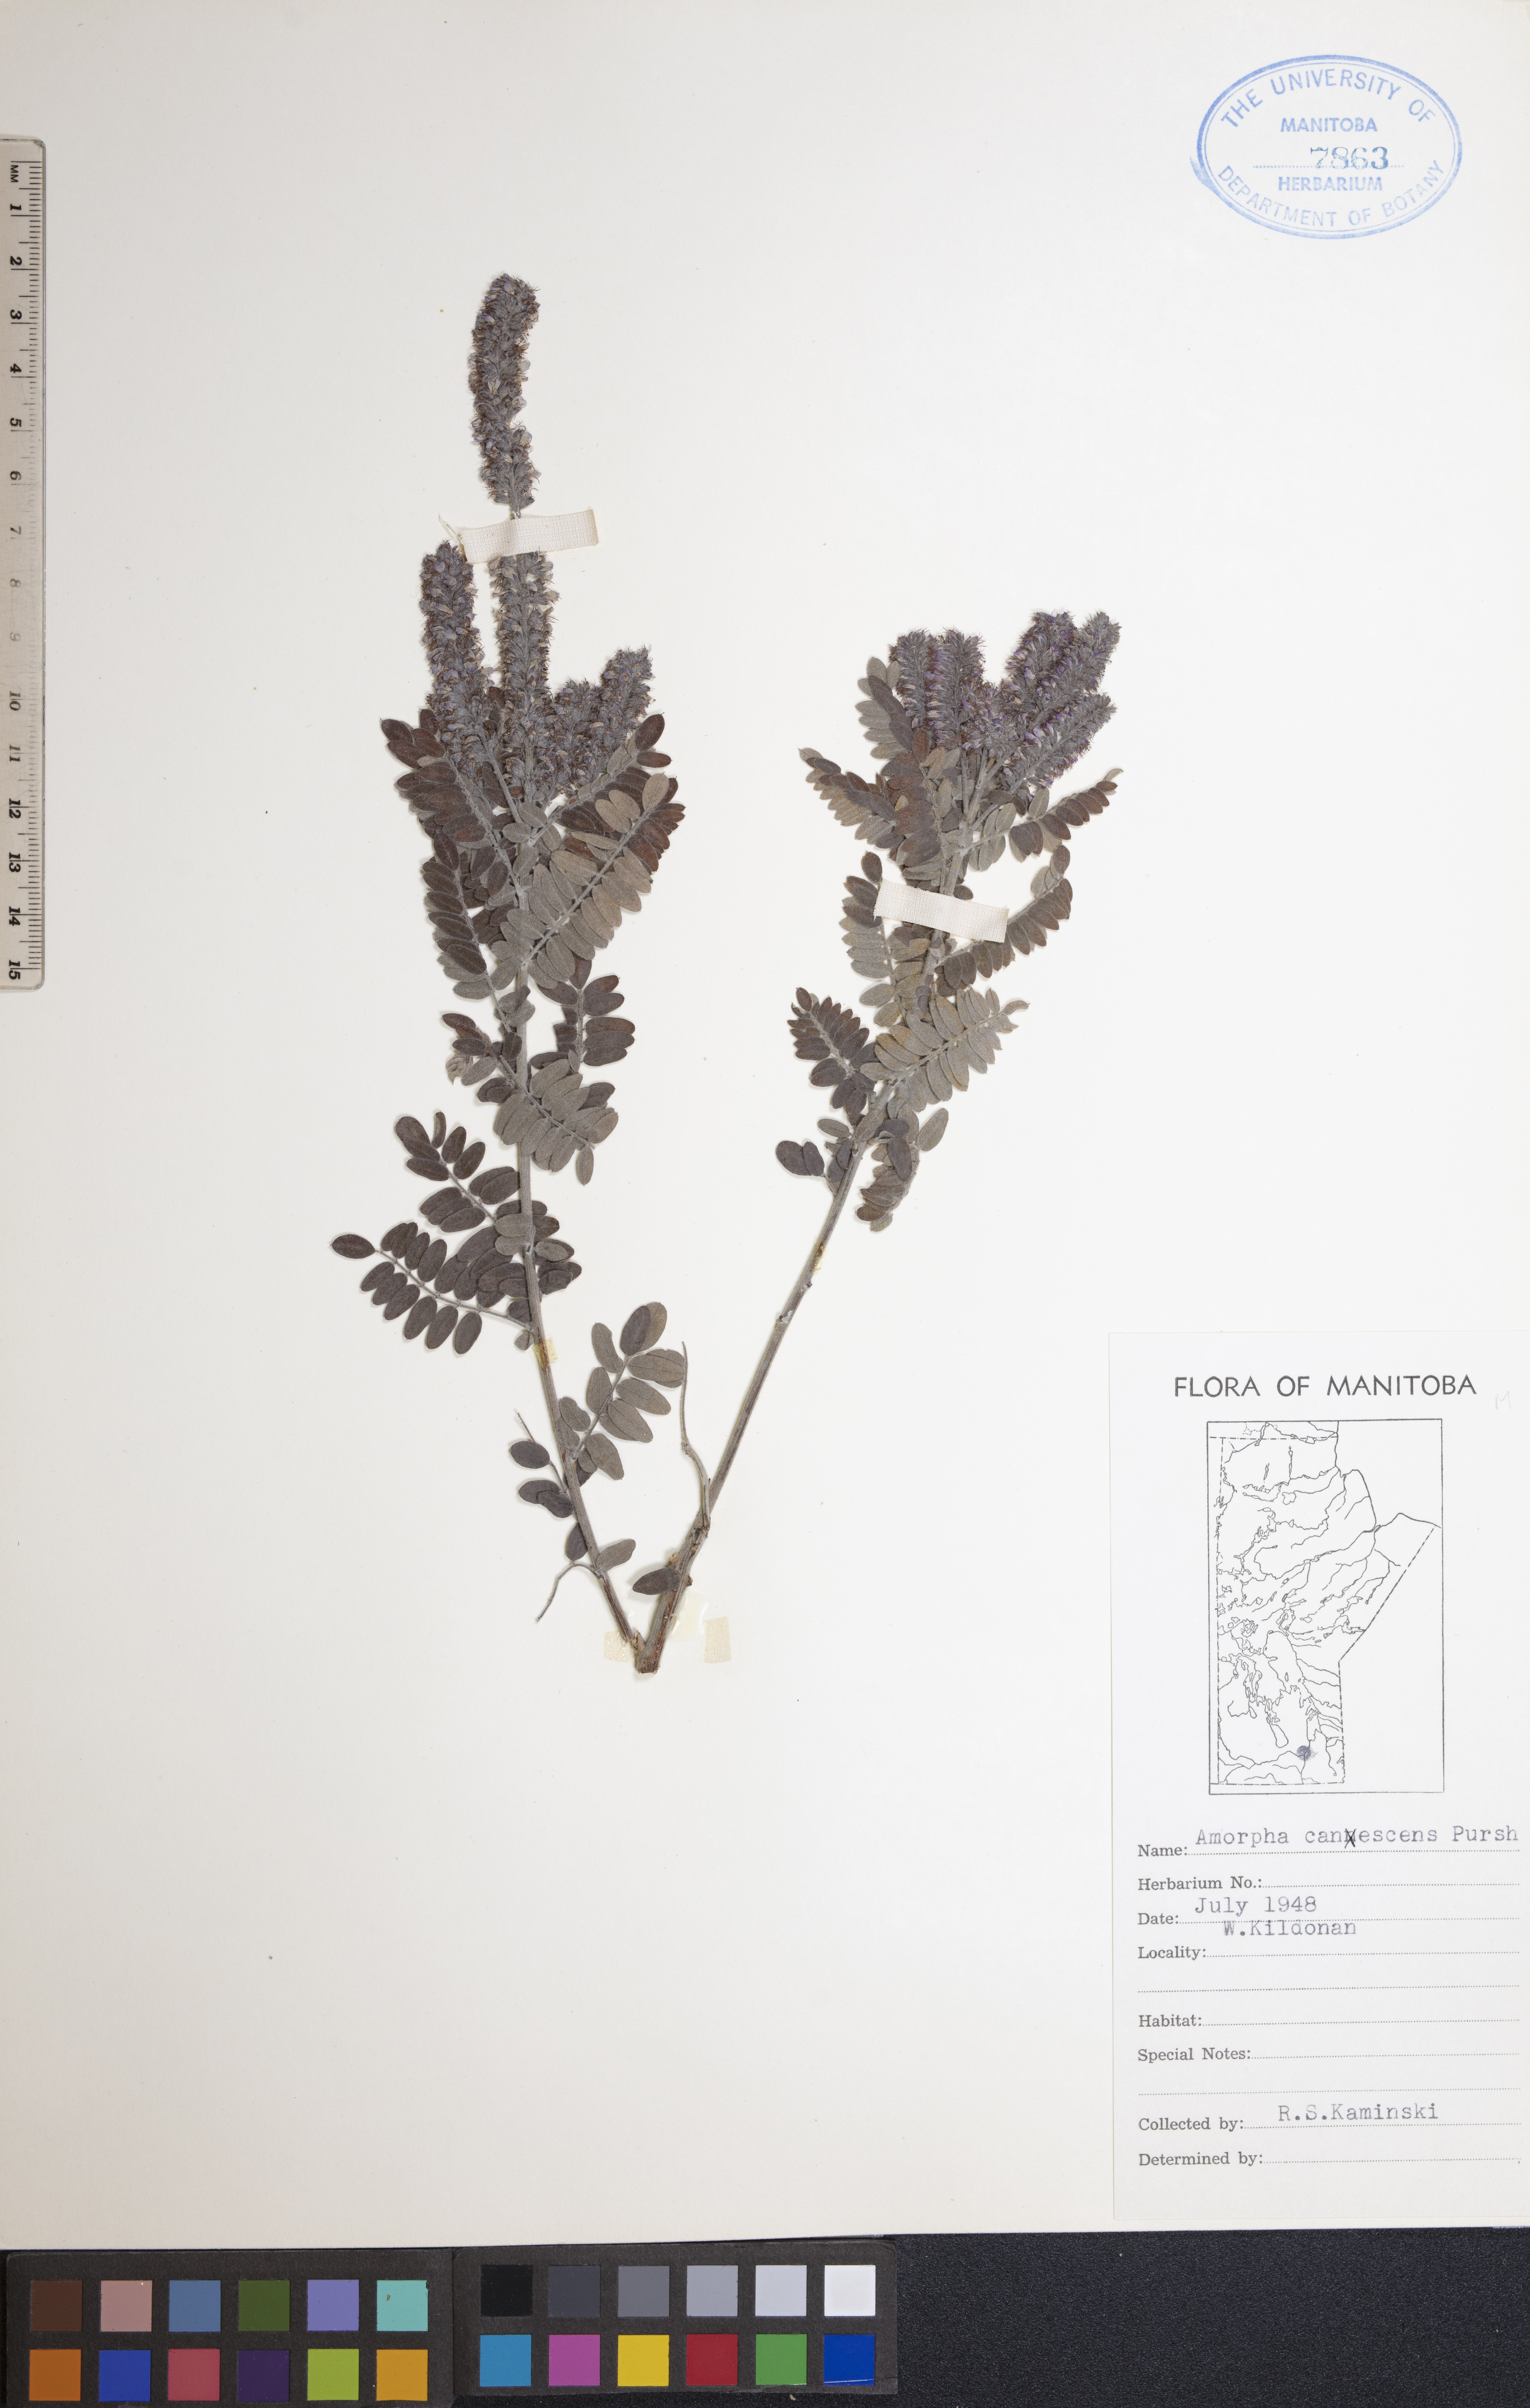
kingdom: Plantae
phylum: Tracheophyta
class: Magnoliopsida
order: Fabales
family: Fabaceae
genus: Amorpha
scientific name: Amorpha canescens
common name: Leadplant
